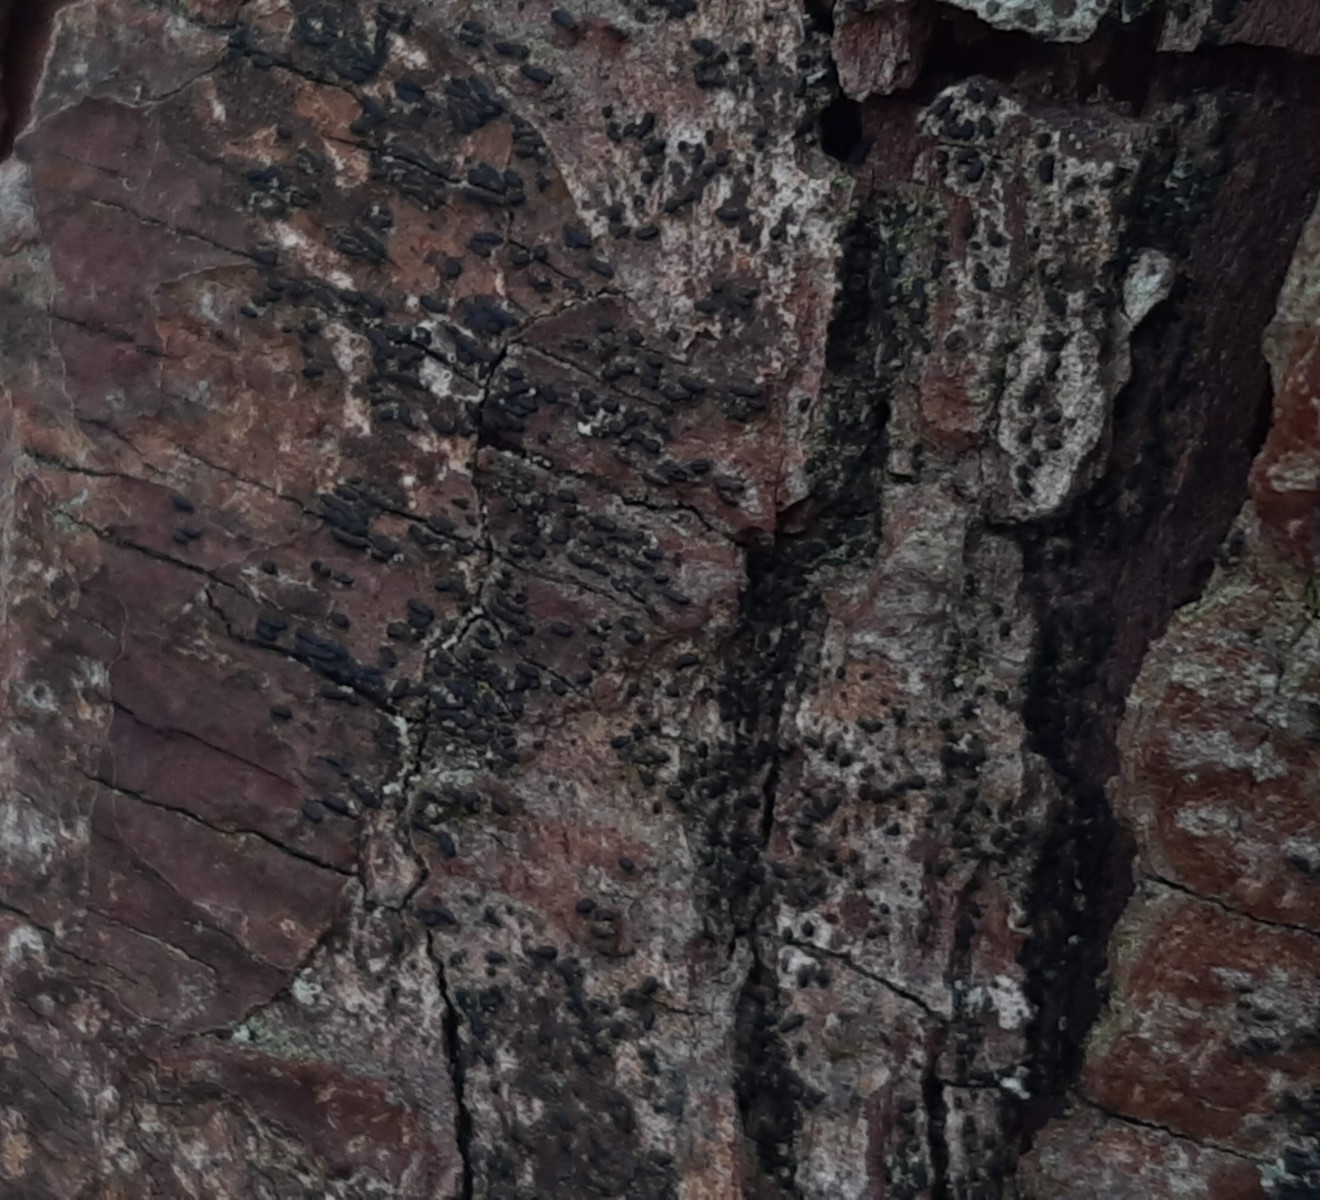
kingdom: Fungi
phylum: Ascomycota
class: Dothideomycetes
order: Hysteriales
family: Hysteriaceae
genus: Hysterium
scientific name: Hysterium pulicare
